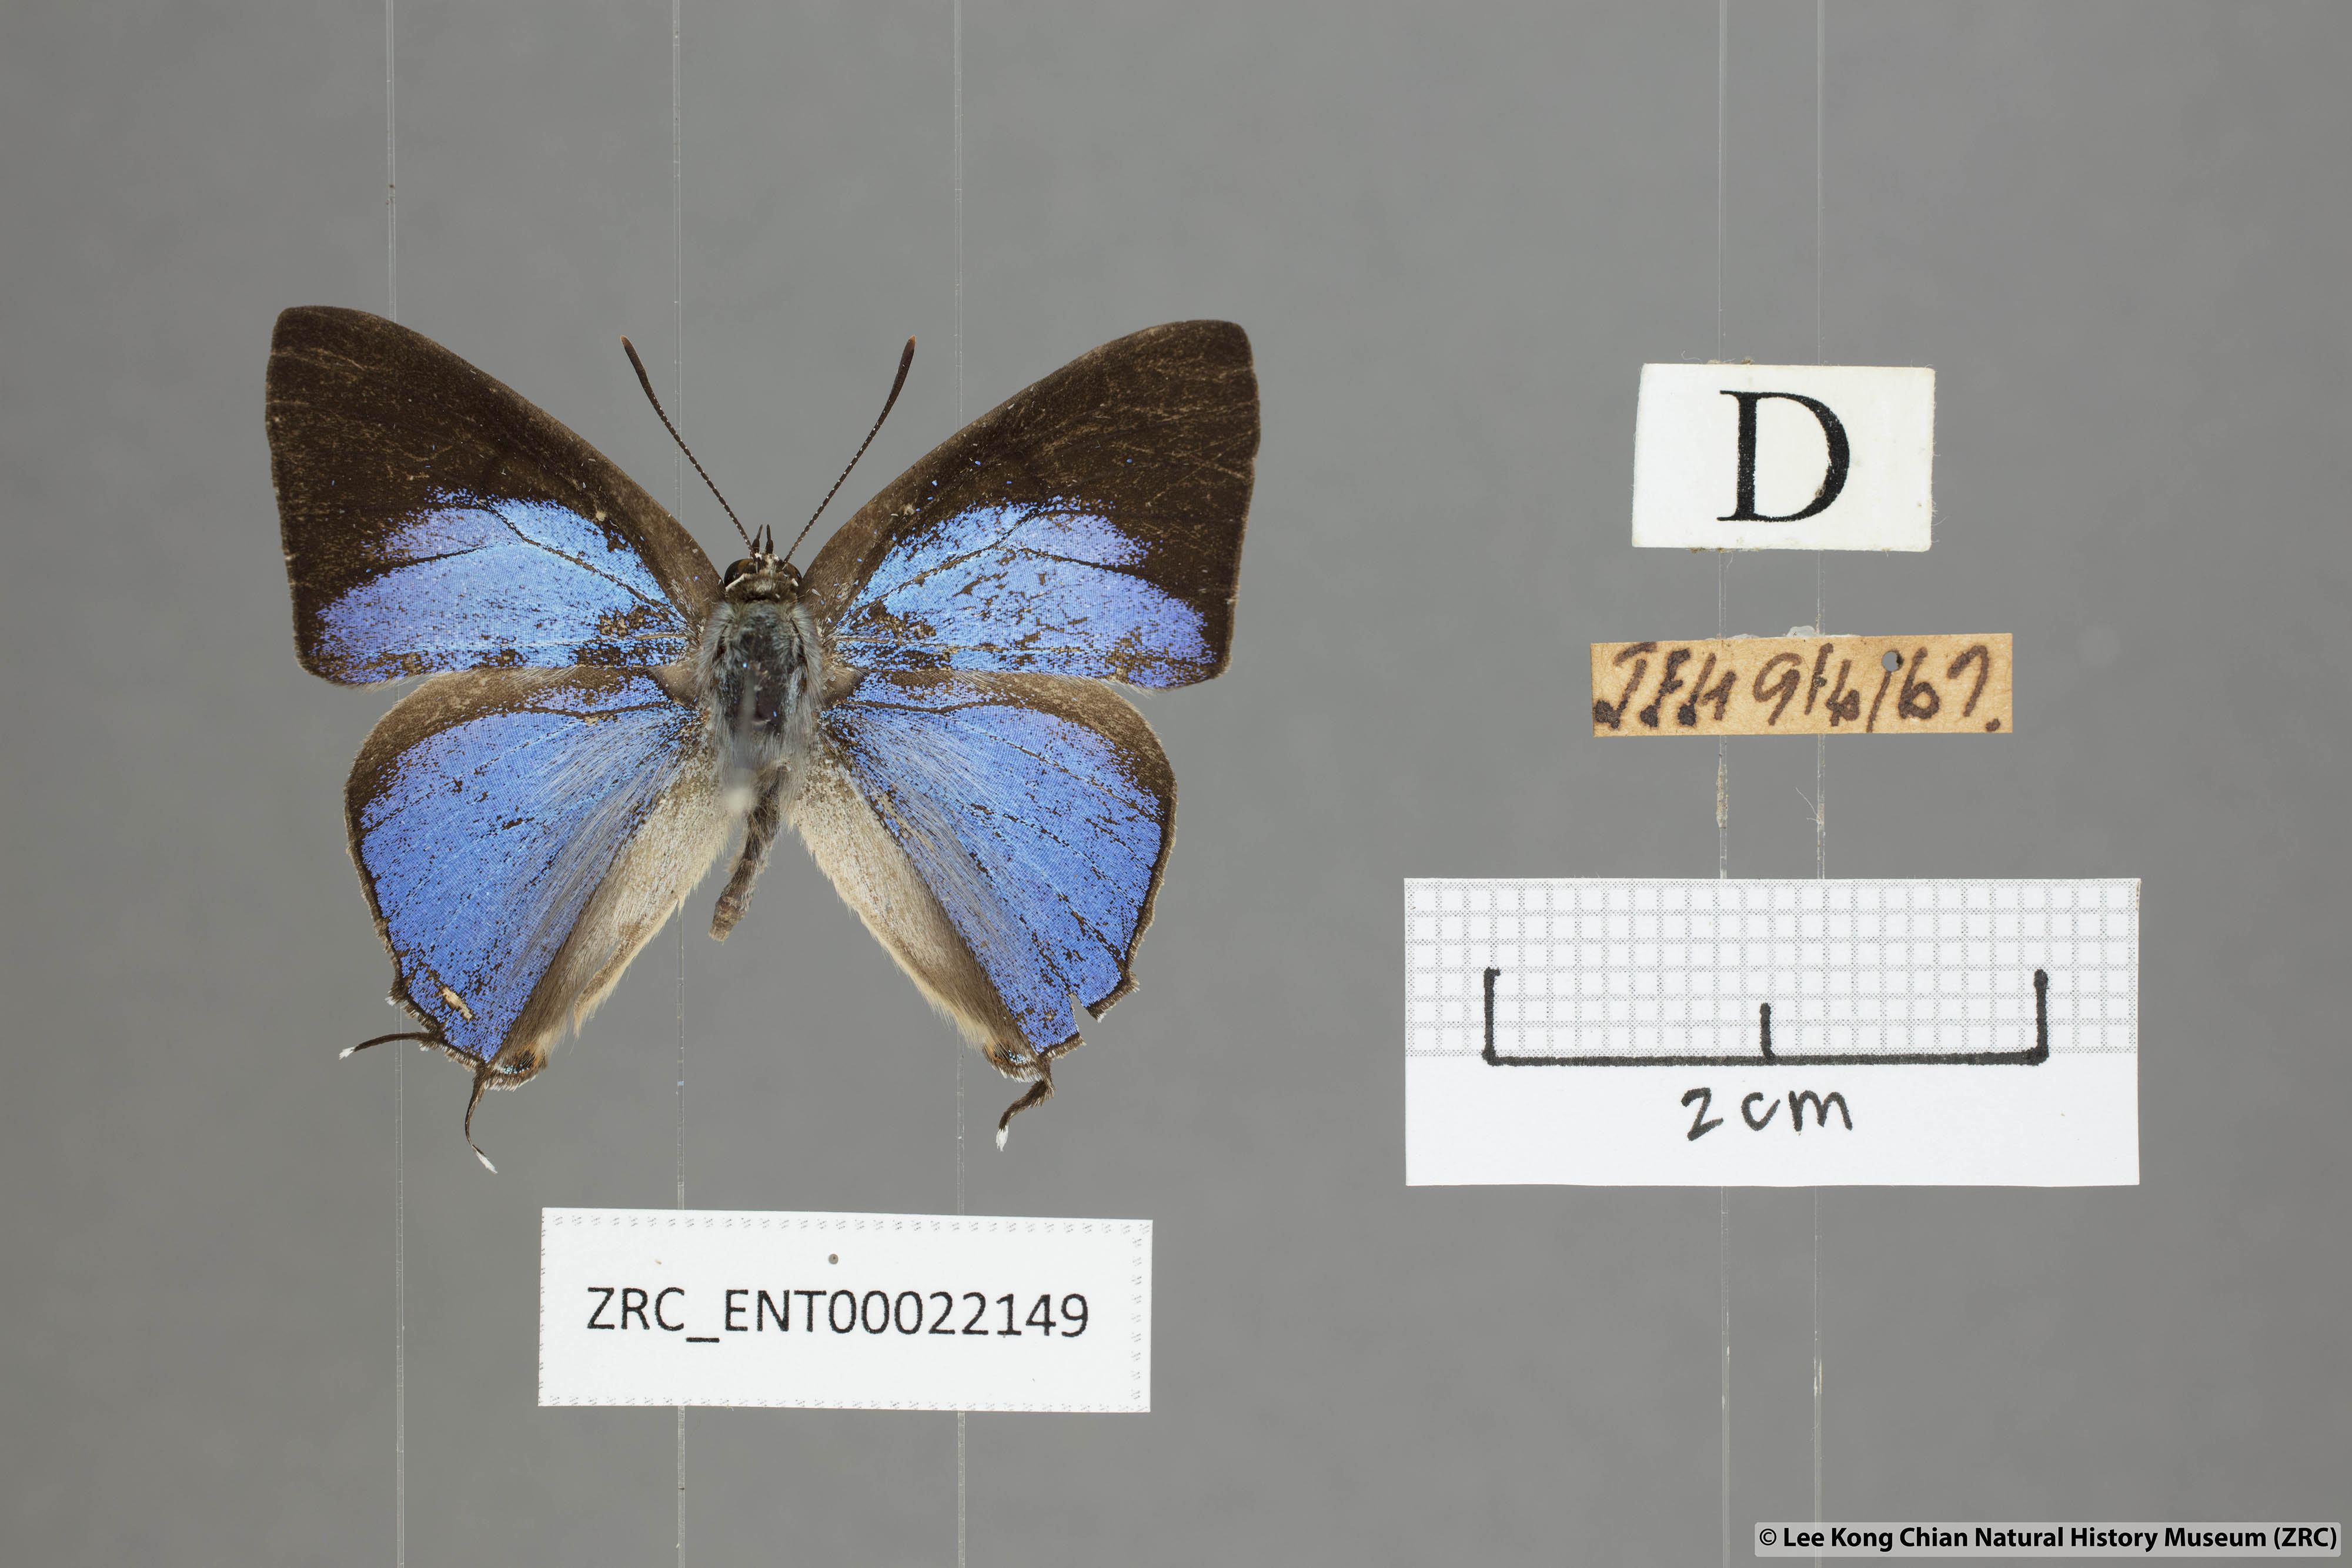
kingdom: Animalia
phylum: Arthropoda
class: Insecta
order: Lepidoptera
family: Lycaenidae
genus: Tajuria
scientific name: Tajuria albiplaga
